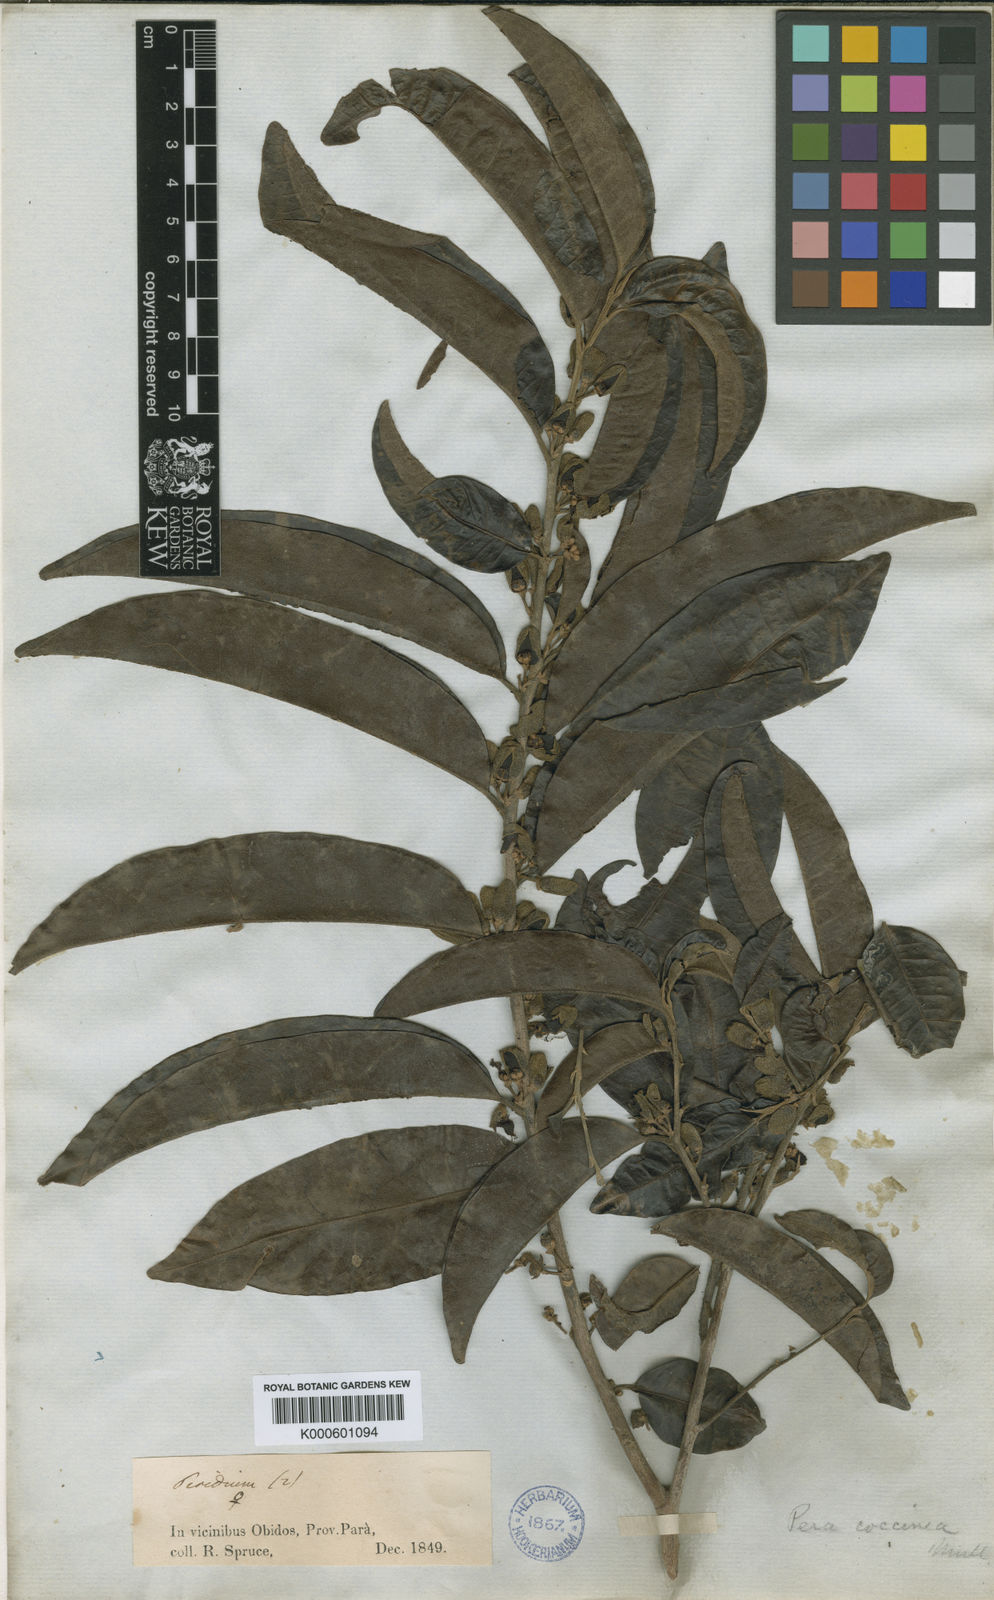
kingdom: Plantae
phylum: Tracheophyta
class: Magnoliopsida
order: Malpighiales
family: Peraceae
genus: Pera
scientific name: Pera
